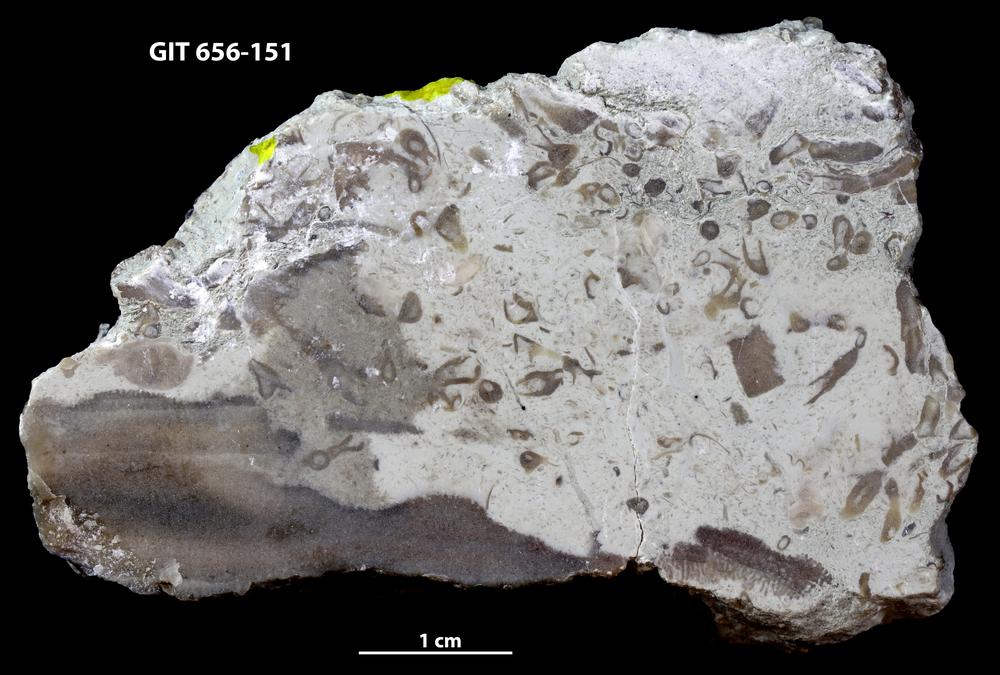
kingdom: Animalia
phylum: Porifera
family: Syringostromellidae
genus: Syringostromella
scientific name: Syringostromella
